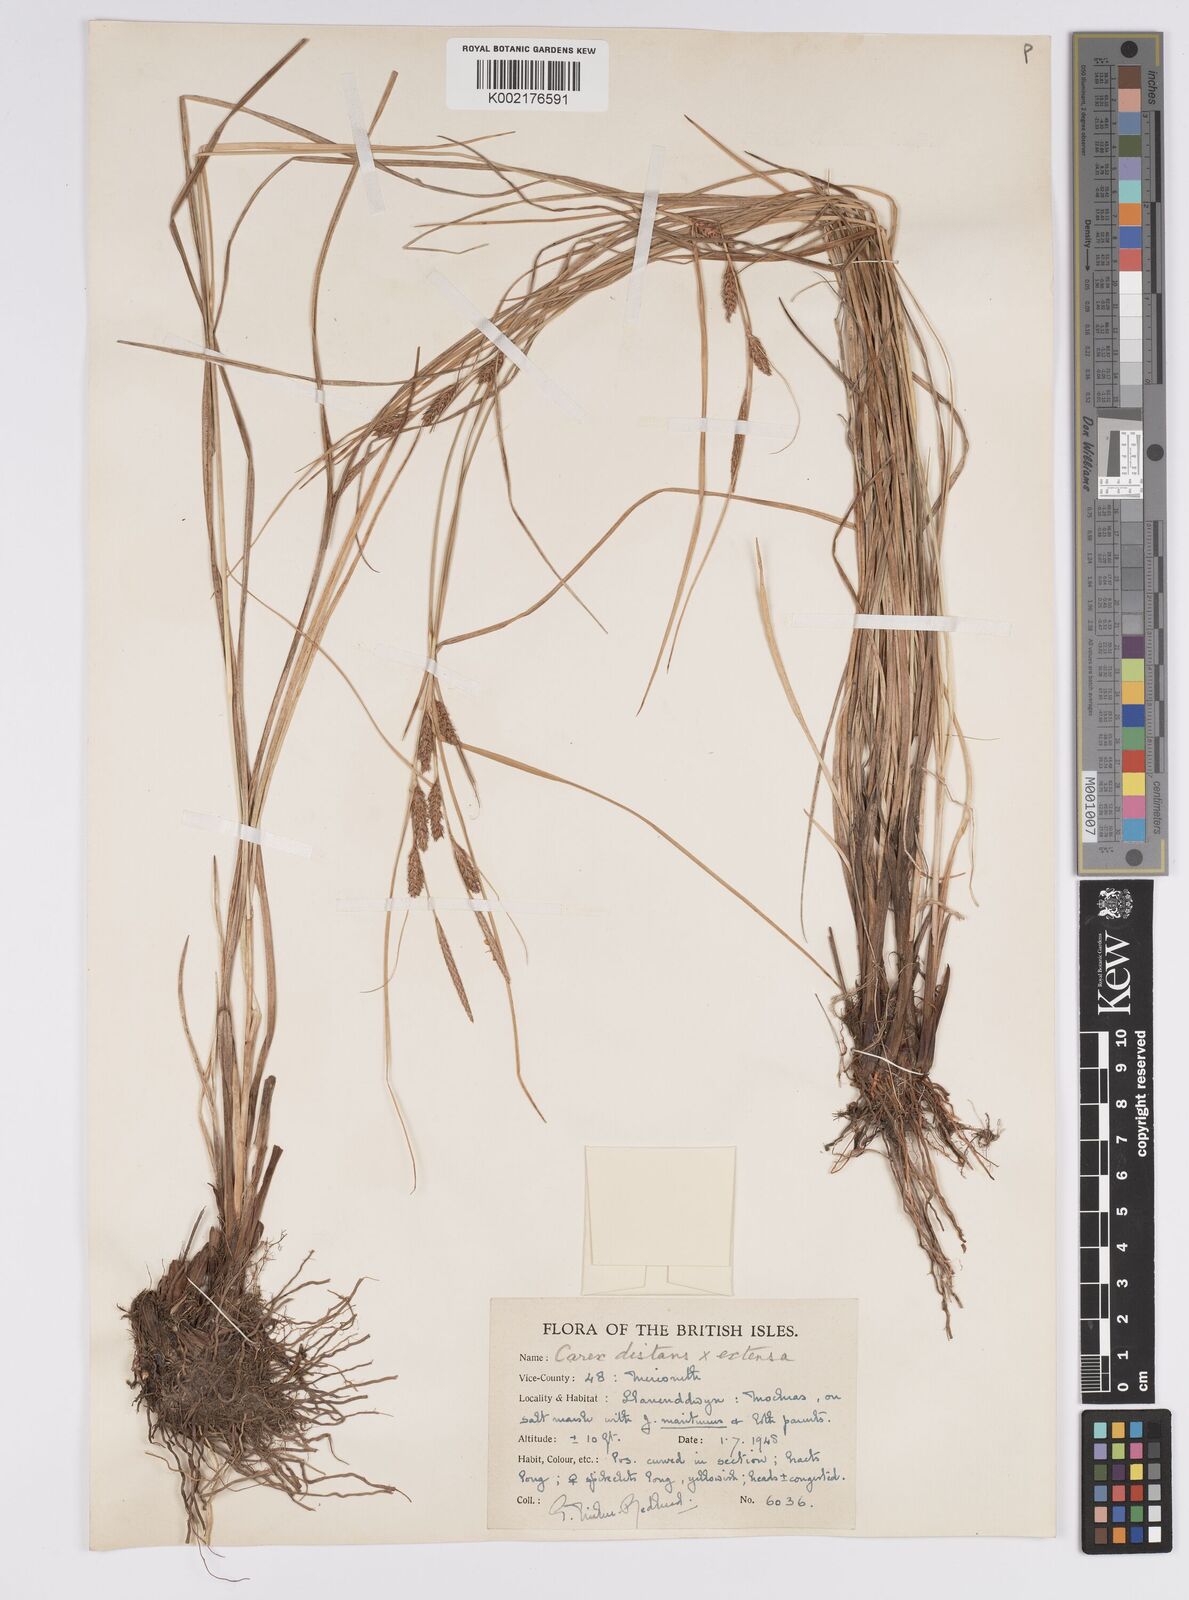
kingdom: Plantae
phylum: Tracheophyta
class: Liliopsida
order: Poales
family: Cyperaceae
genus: Carex
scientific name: Carex distans
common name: Distant sedge
